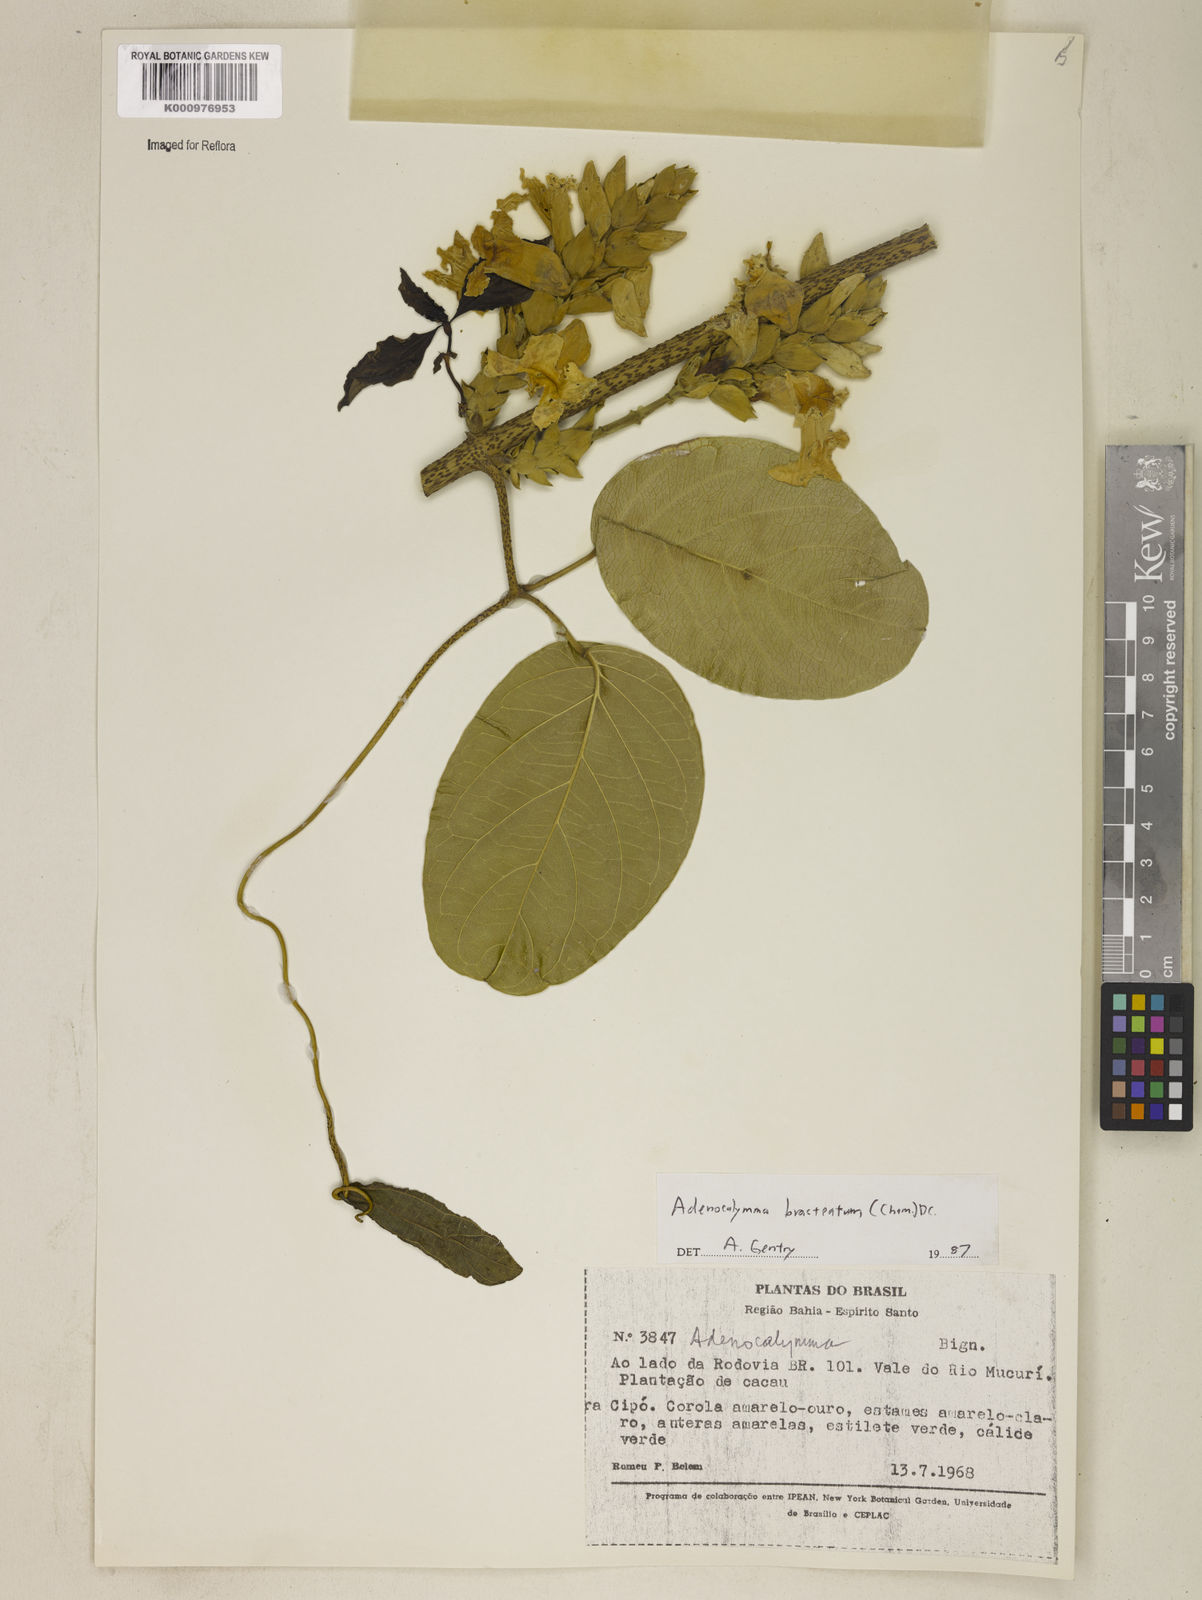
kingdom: Plantae
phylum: Tracheophyta
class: Magnoliopsida
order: Lamiales
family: Bignoniaceae
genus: Adenocalymma
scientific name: Adenocalymma bracteatum
